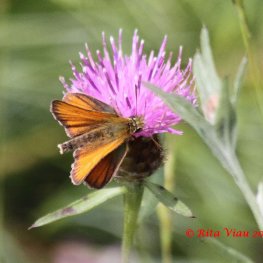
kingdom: Animalia
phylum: Arthropoda
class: Insecta
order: Lepidoptera
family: Hesperiidae
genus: Thymelicus
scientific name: Thymelicus lineola
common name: European Skipper
